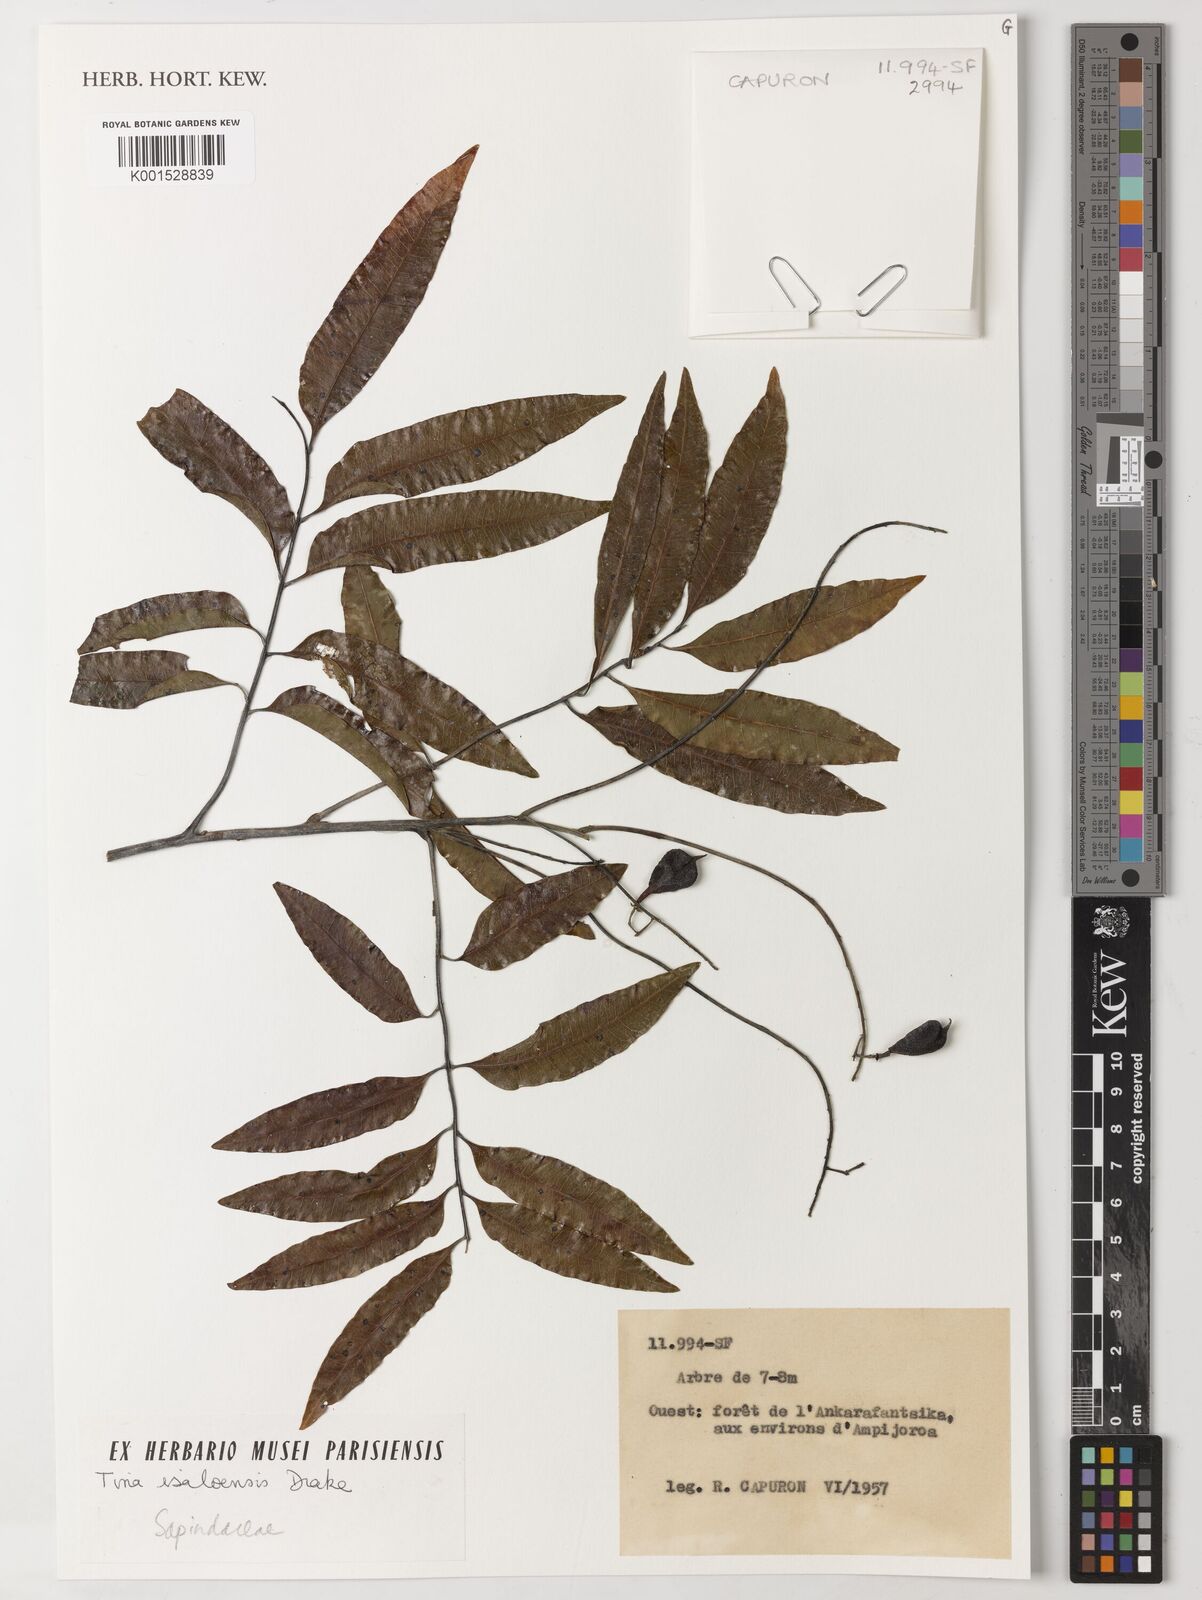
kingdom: Plantae
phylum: Tracheophyta
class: Magnoliopsida
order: Sapindales
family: Sapindaceae
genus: Tina
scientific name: Tina isaloensis
